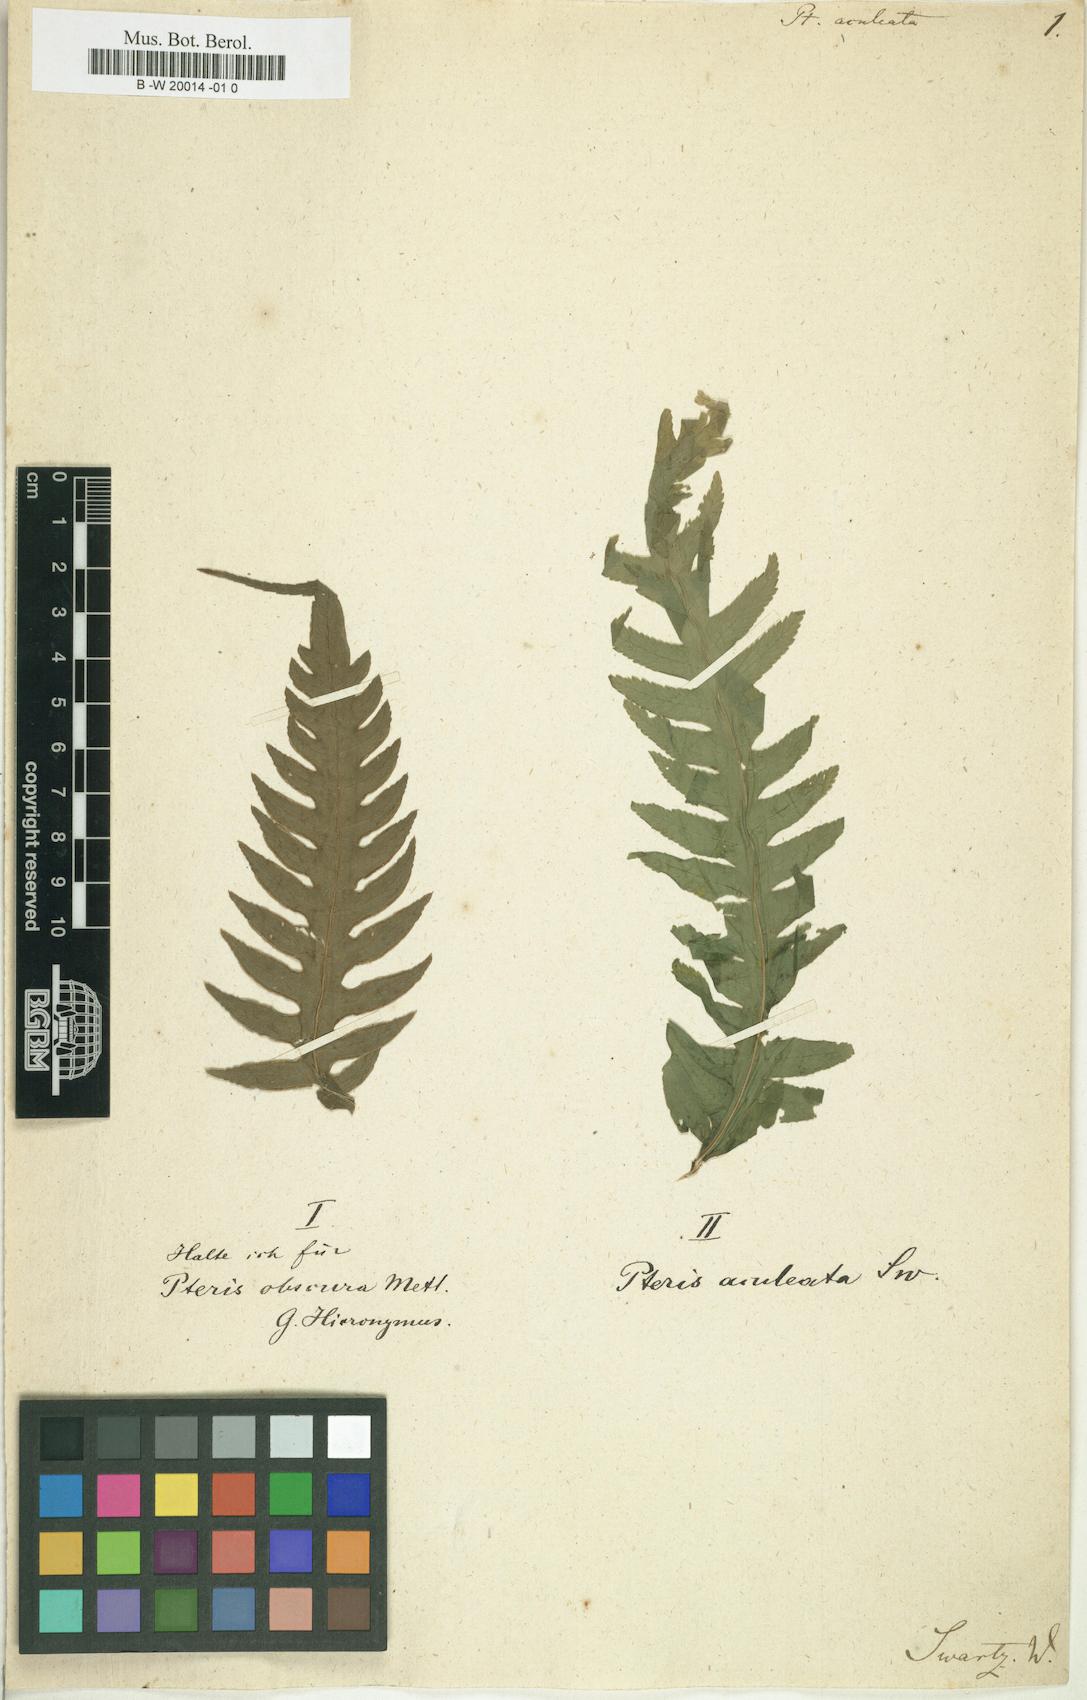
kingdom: Plantae
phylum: Tracheophyta
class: Polypodiopsida
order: Polypodiales
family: Pteridaceae
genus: Pteris
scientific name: Pteris aculeata
